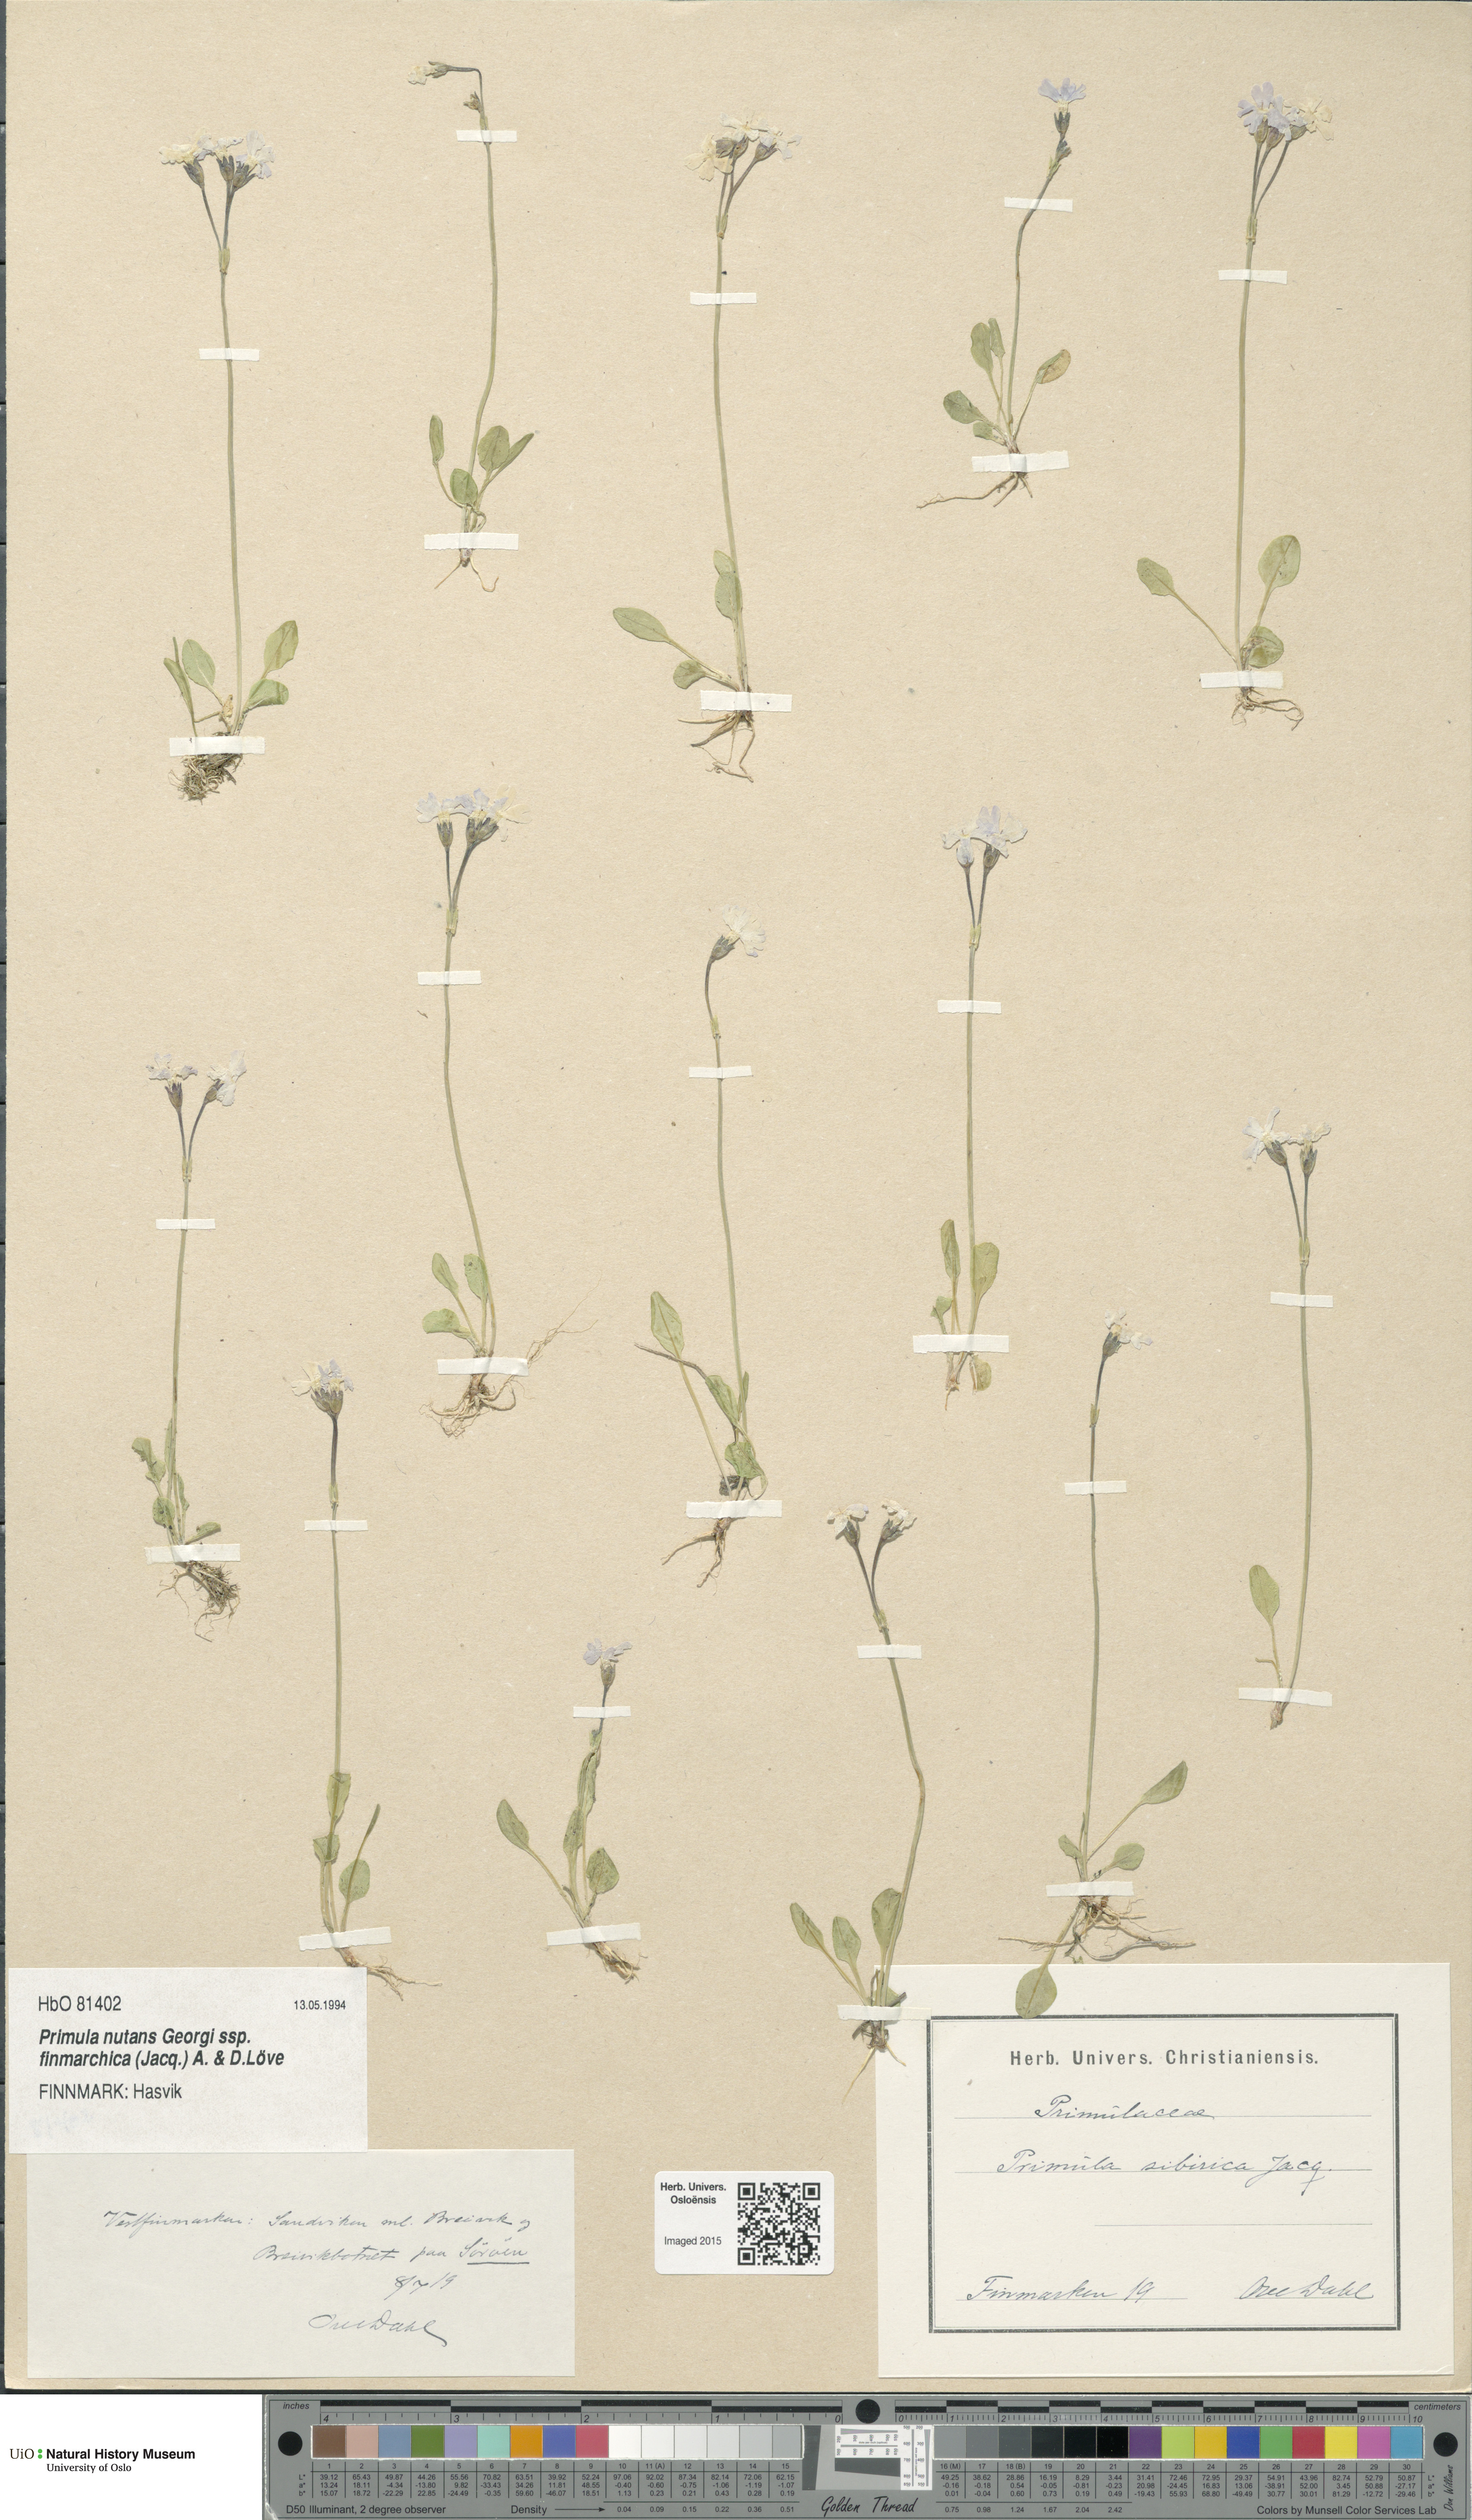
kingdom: Plantae
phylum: Tracheophyta
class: Magnoliopsida
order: Ericales
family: Primulaceae
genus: Primula
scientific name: Primula nutans
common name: Siberian primrose
